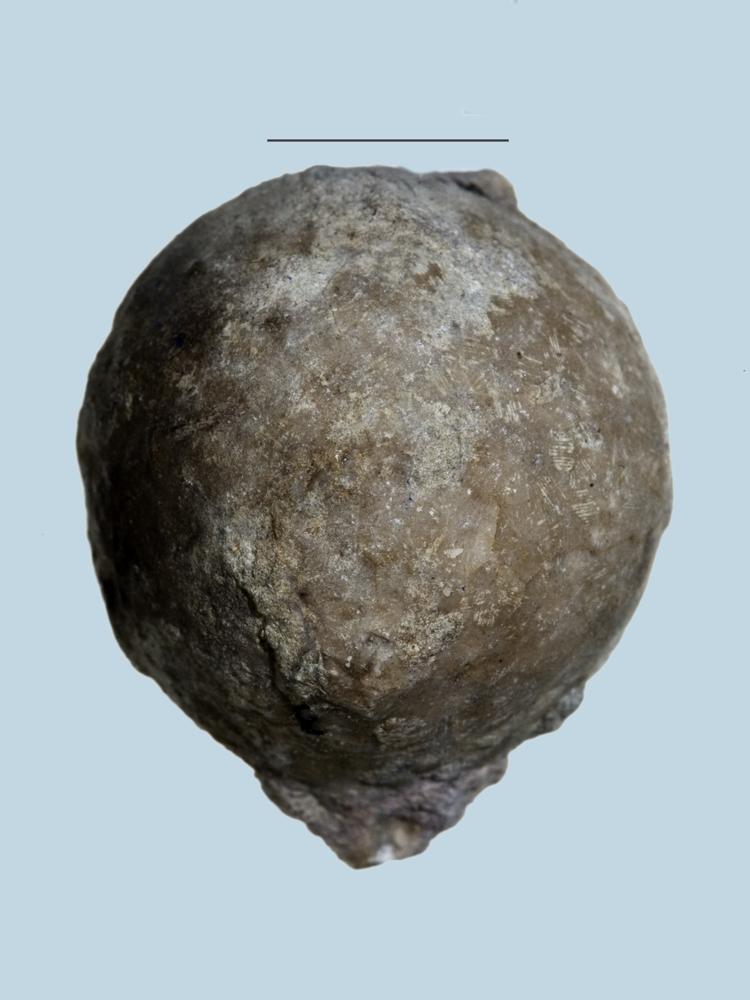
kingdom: Animalia
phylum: Echinodermata
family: Echinosphaeritidae
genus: Echinosphaerites
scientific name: Echinosphaerites Echinus aurantium
